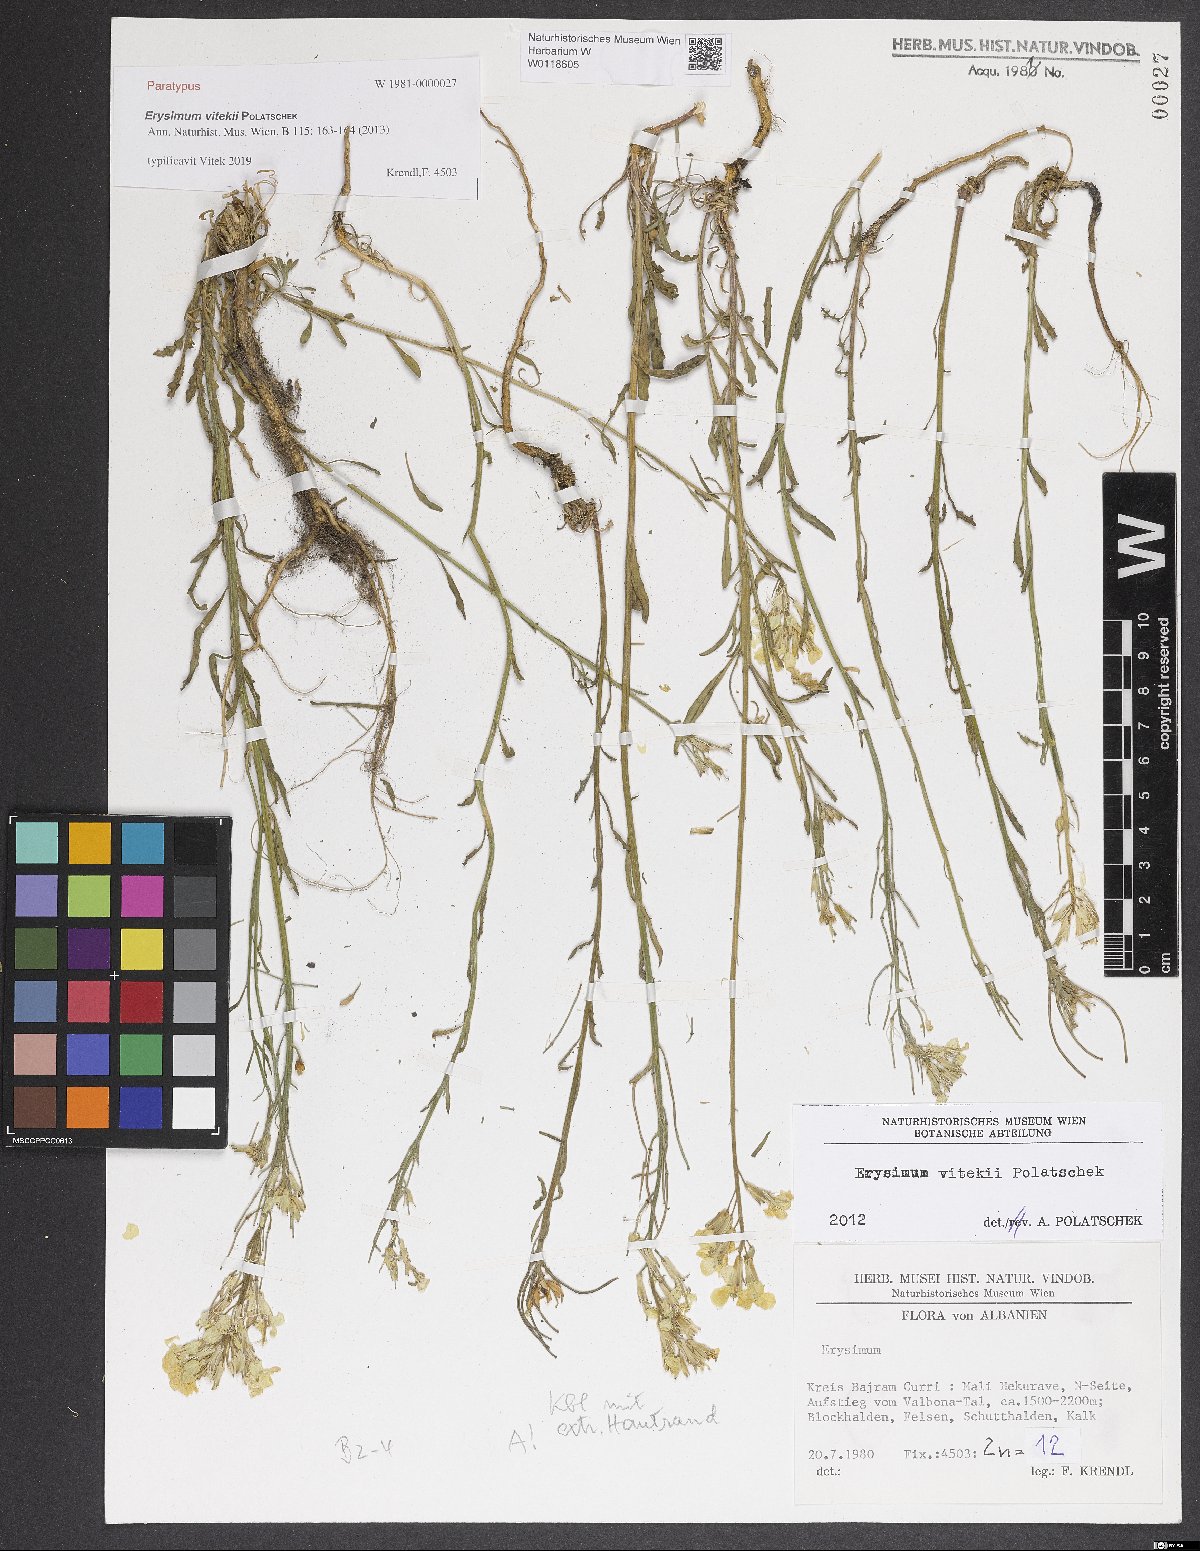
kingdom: Plantae
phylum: Tracheophyta
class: Magnoliopsida
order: Brassicales
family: Brassicaceae
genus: Erysimum
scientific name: Erysimum vitekii
